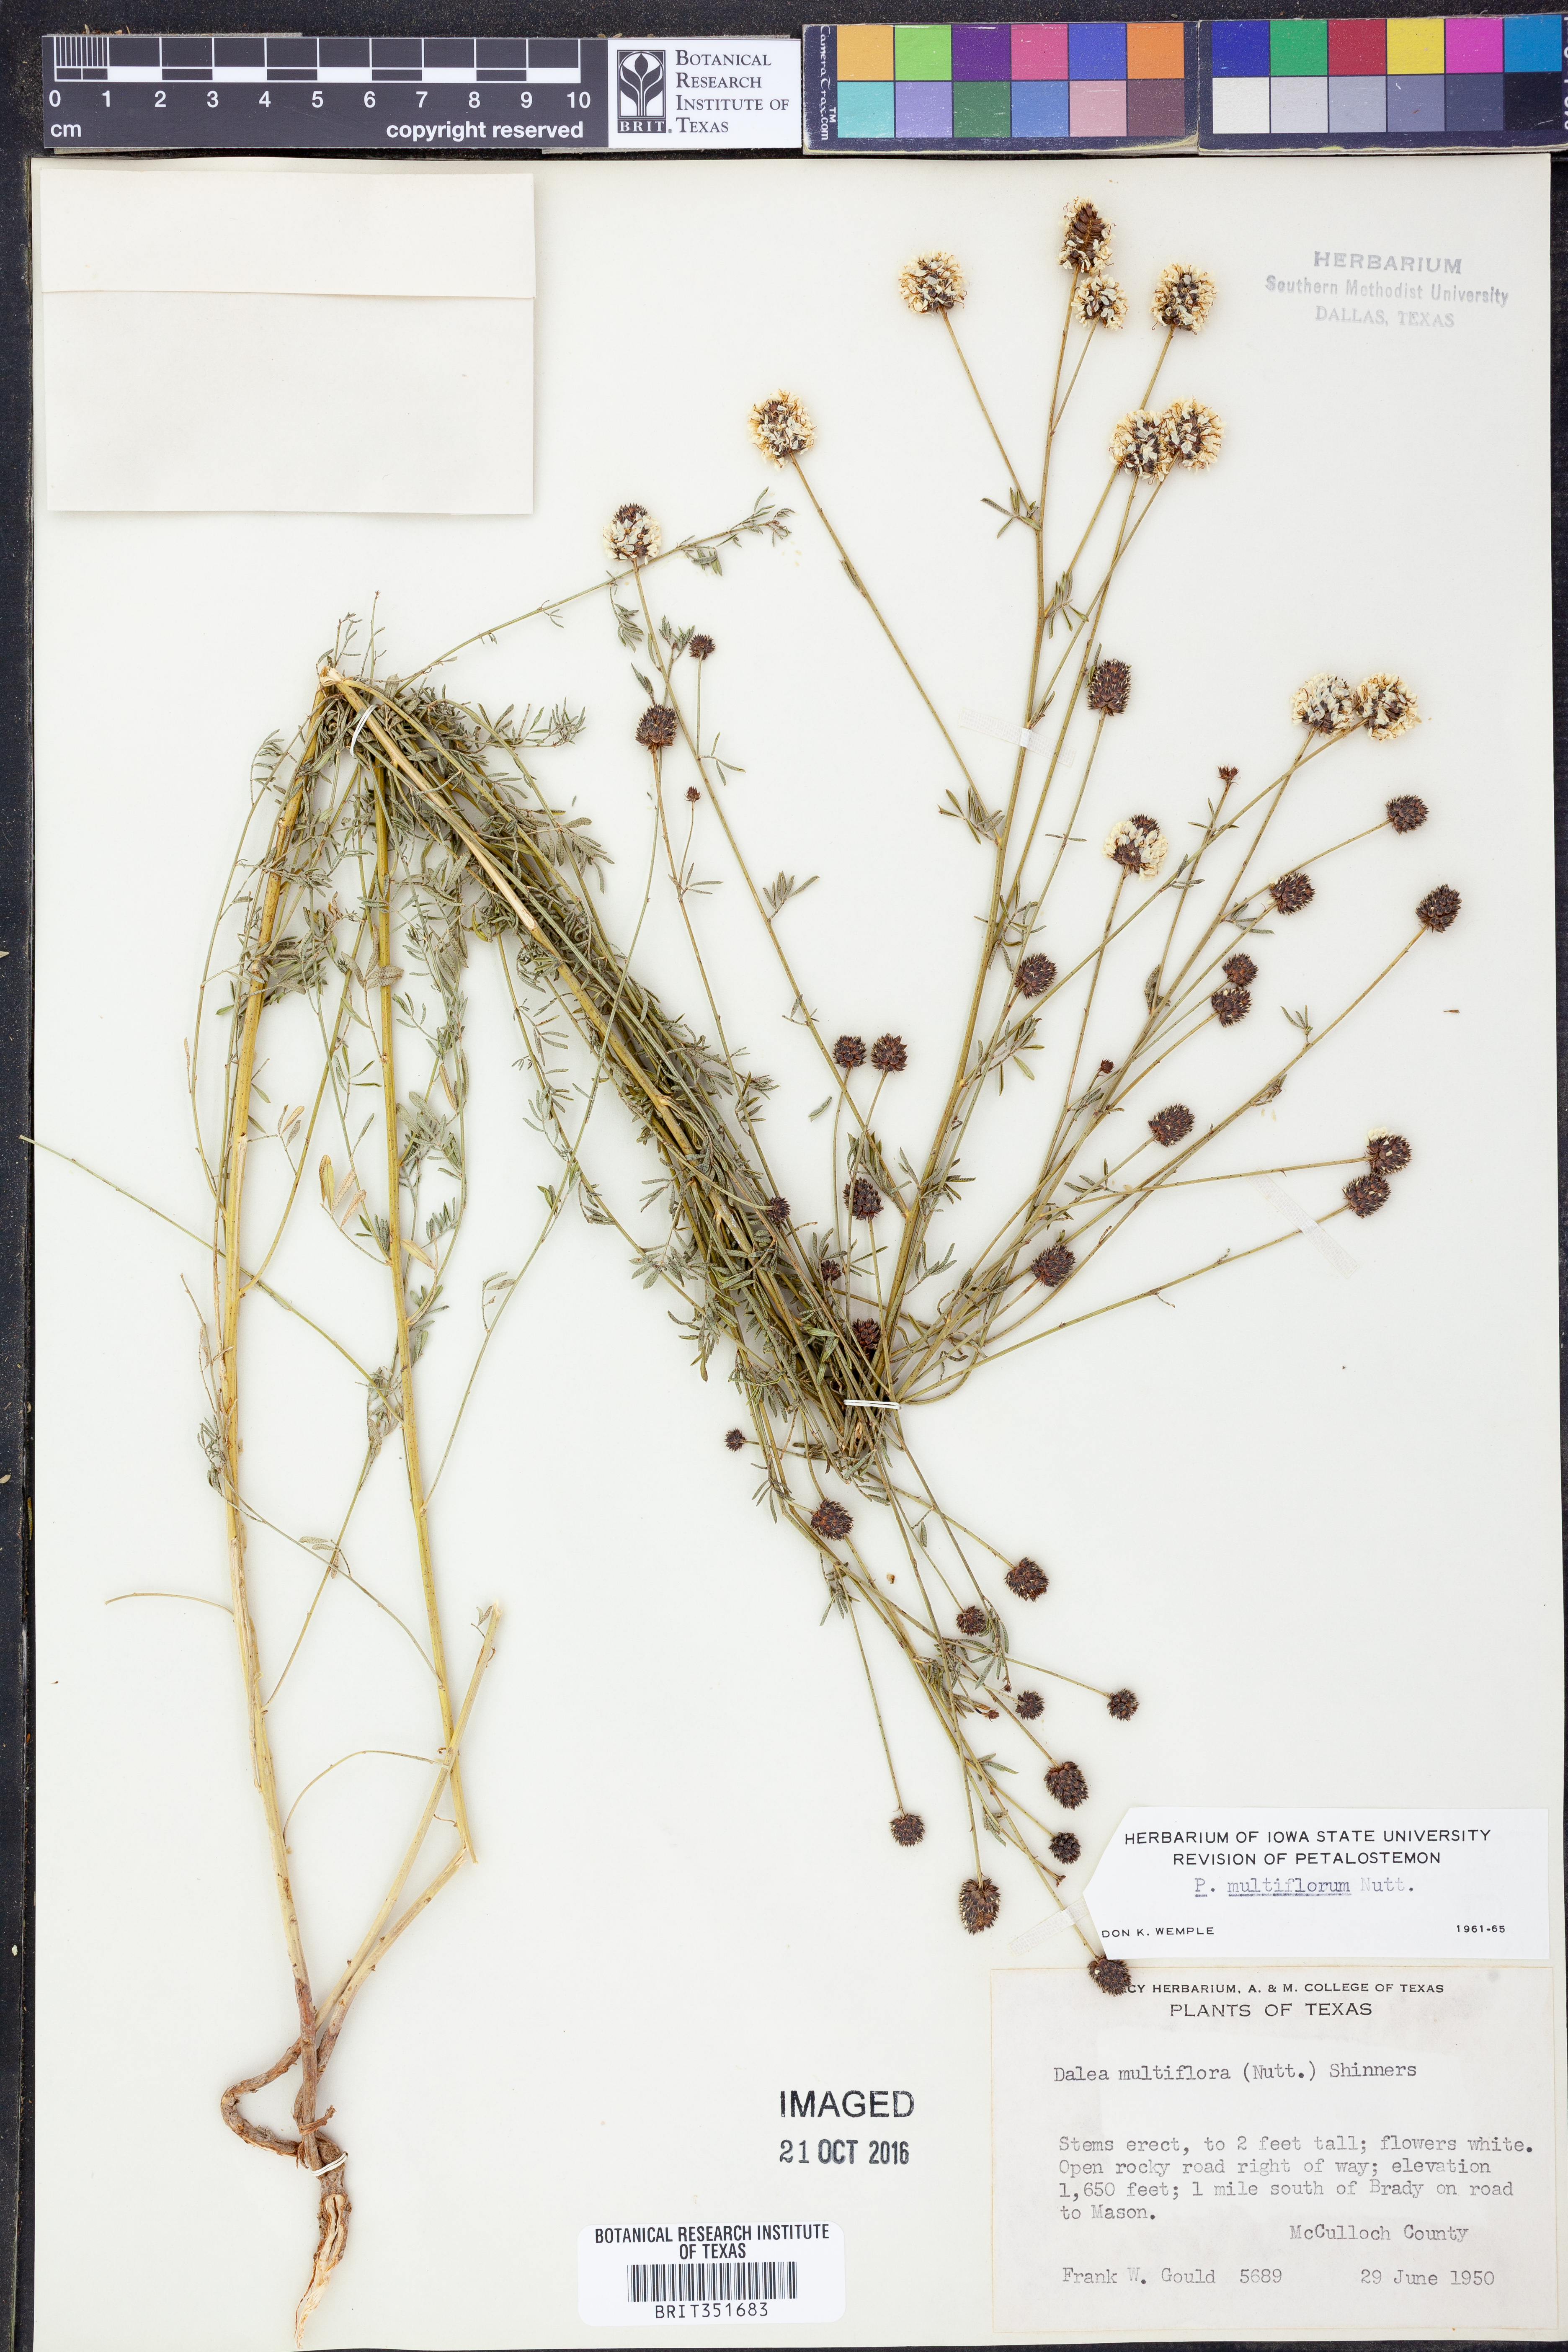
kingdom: Plantae
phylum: Tracheophyta
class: Magnoliopsida
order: Fabales
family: Fabaceae
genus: Dalea
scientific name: Dalea multiflora
